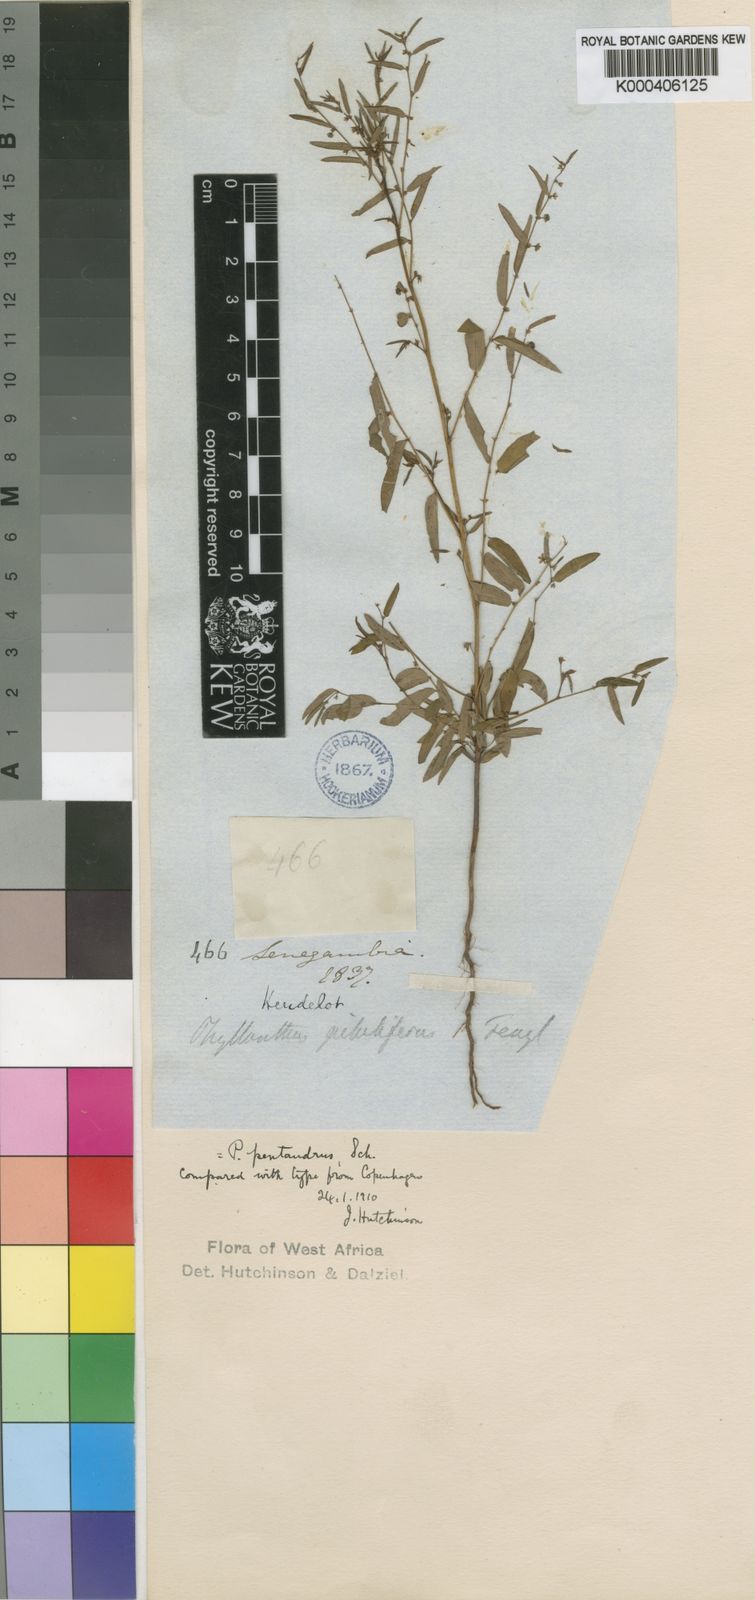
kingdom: Plantae
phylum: Tracheophyta
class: Magnoliopsida
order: Malpighiales
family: Phyllanthaceae
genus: Phyllanthus
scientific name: Phyllanthus pentandrus
